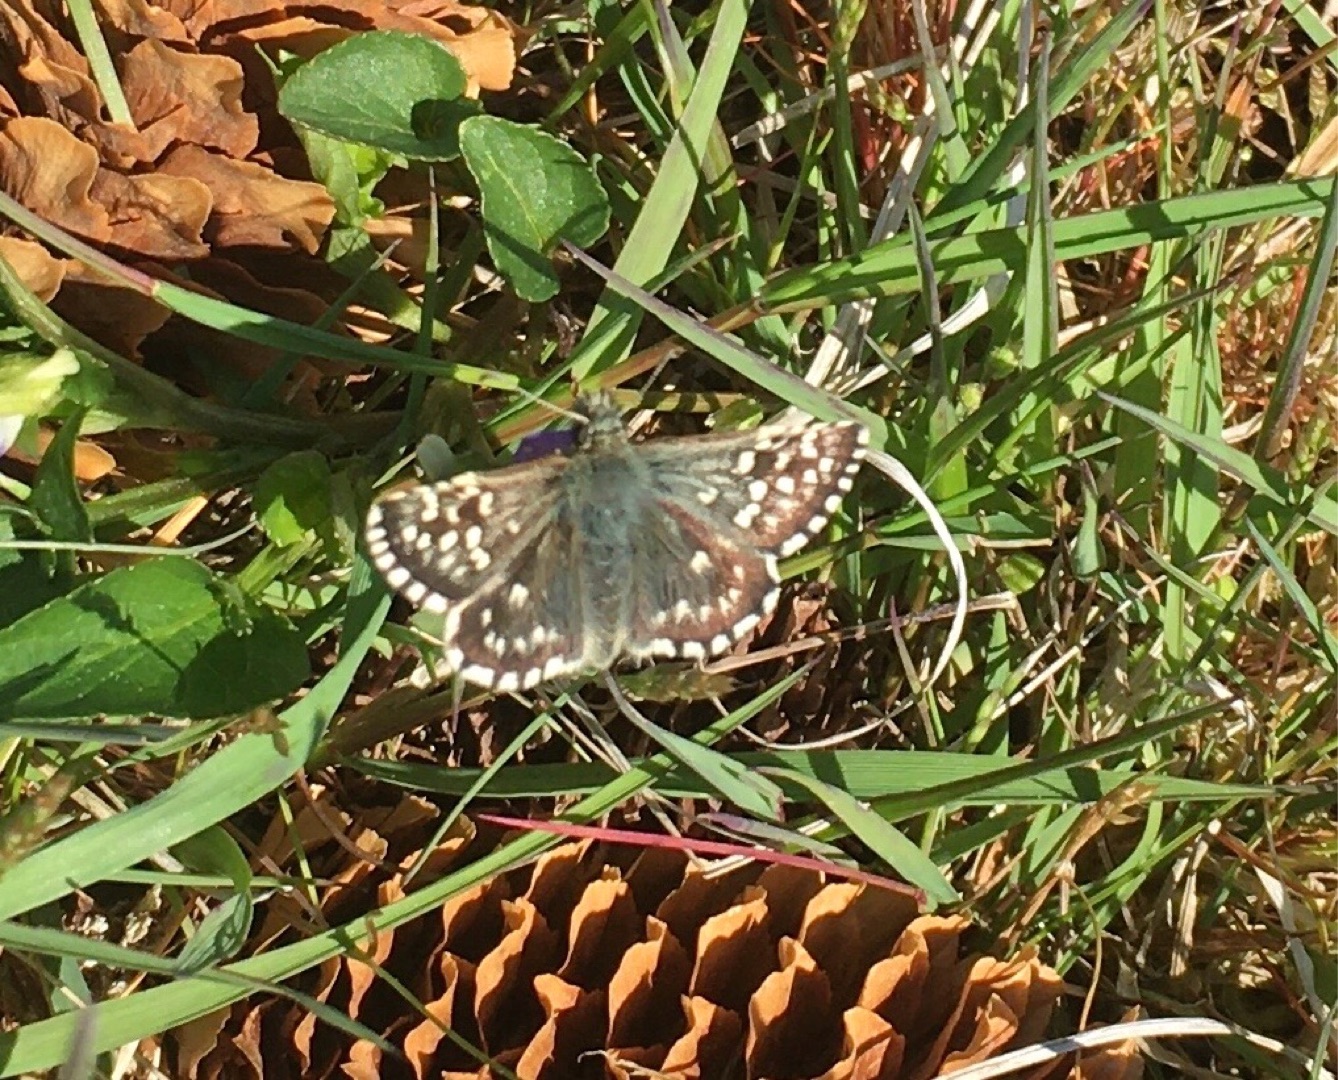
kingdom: Animalia
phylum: Arthropoda
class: Insecta
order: Lepidoptera
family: Hesperiidae
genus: Pyrgus
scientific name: Pyrgus malvae
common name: Spættet bredpande
